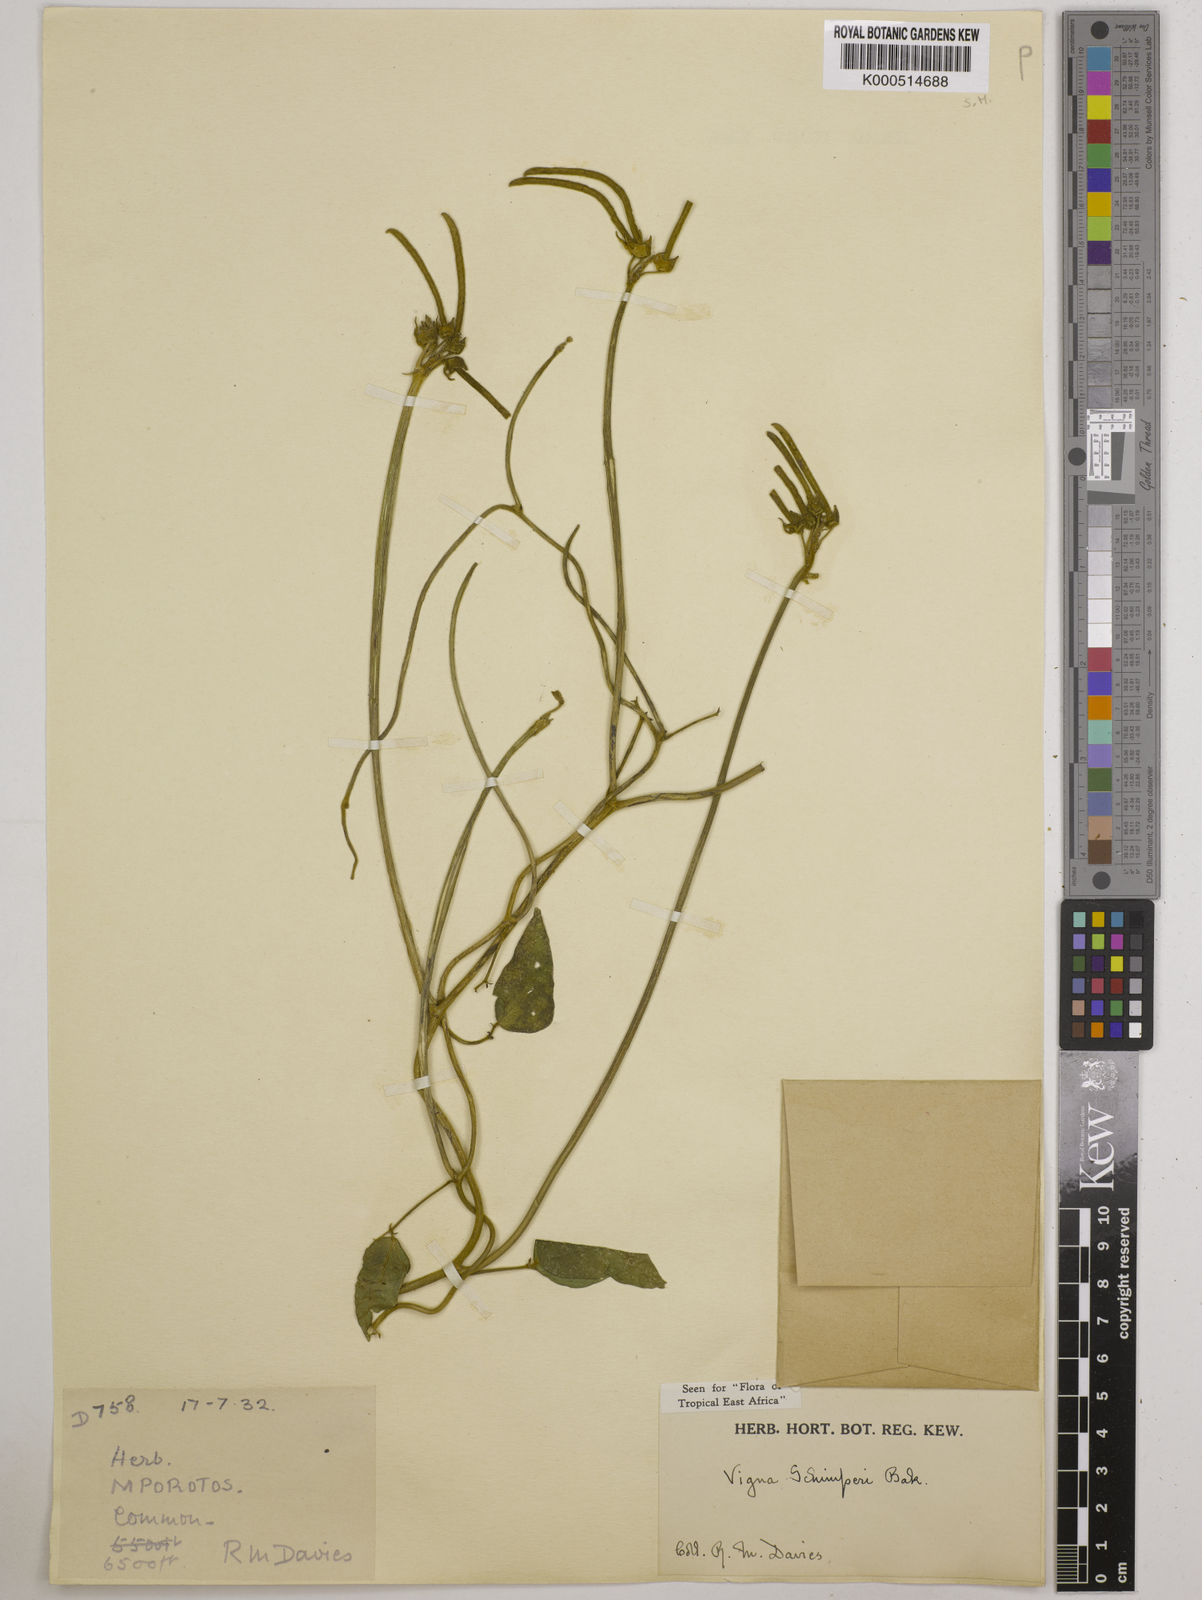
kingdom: Plantae
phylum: Tracheophyta
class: Magnoliopsida
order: Fabales
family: Fabaceae
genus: Vigna
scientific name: Vigna schimperi
